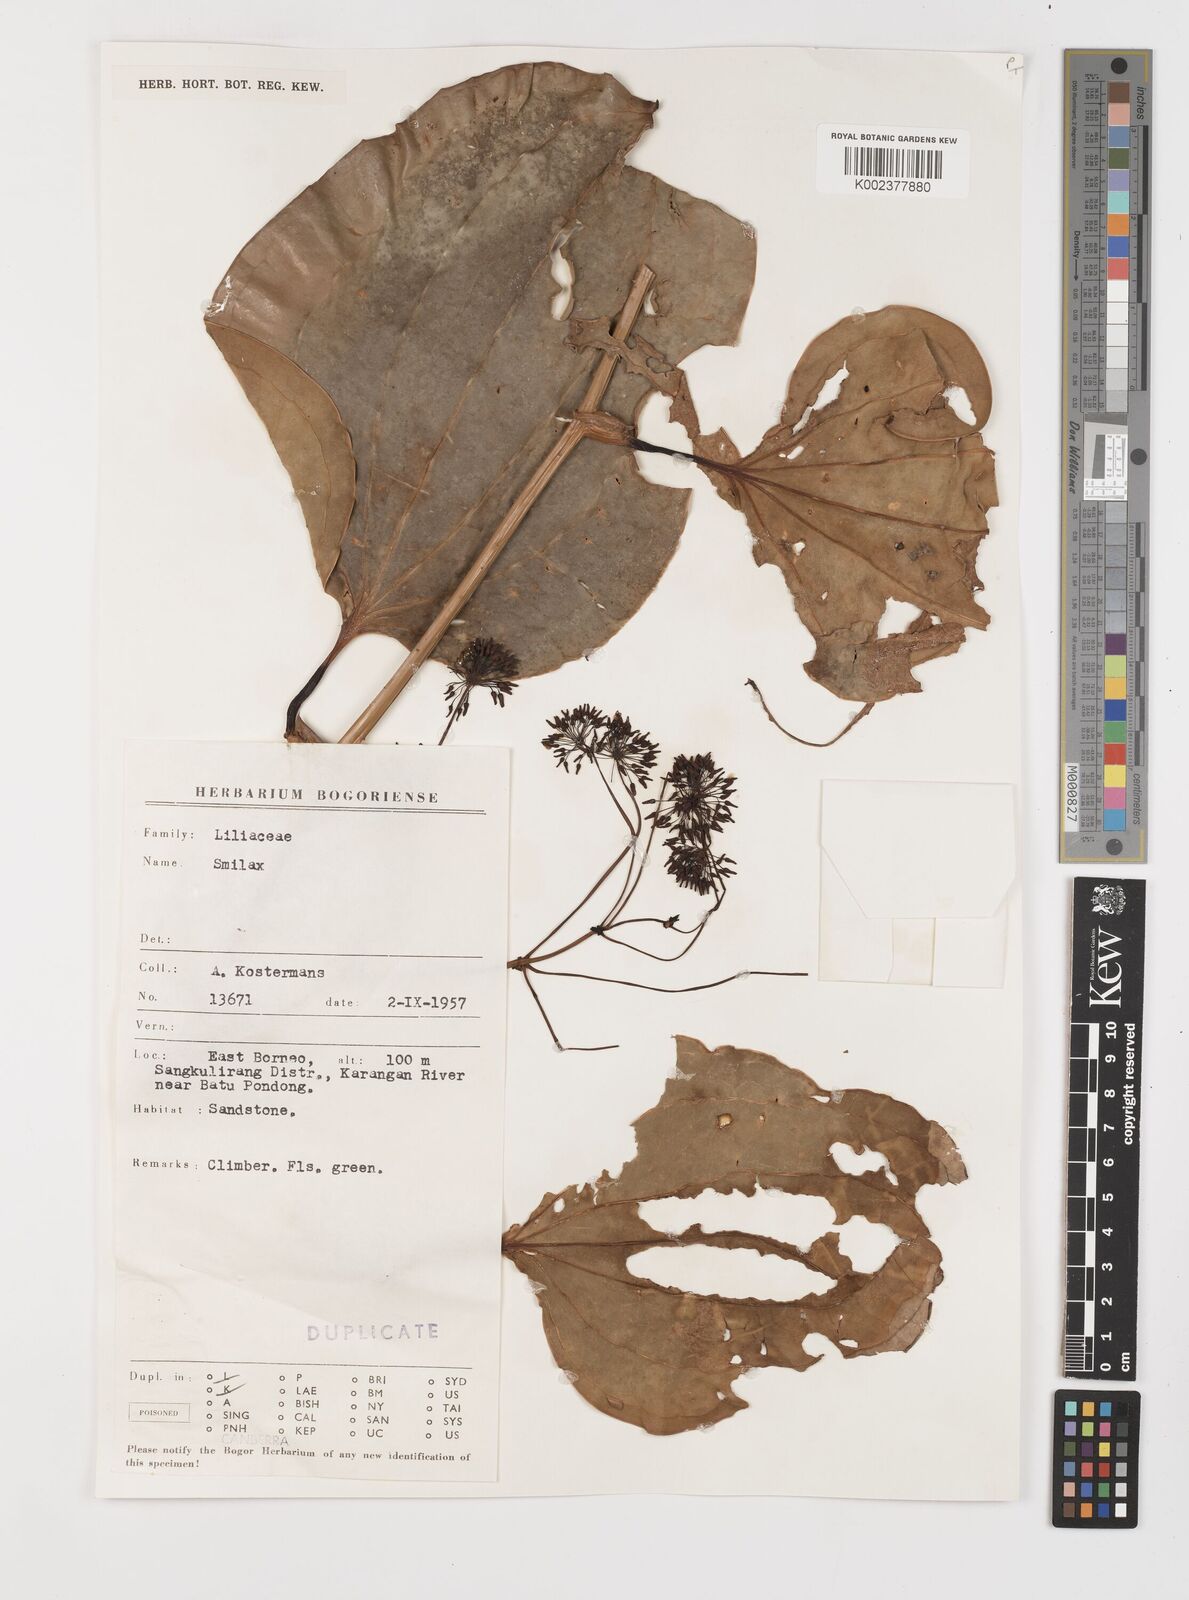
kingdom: Plantae
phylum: Tracheophyta
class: Liliopsida
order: Liliales
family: Smilacaceae
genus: Smilax
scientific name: Smilax
